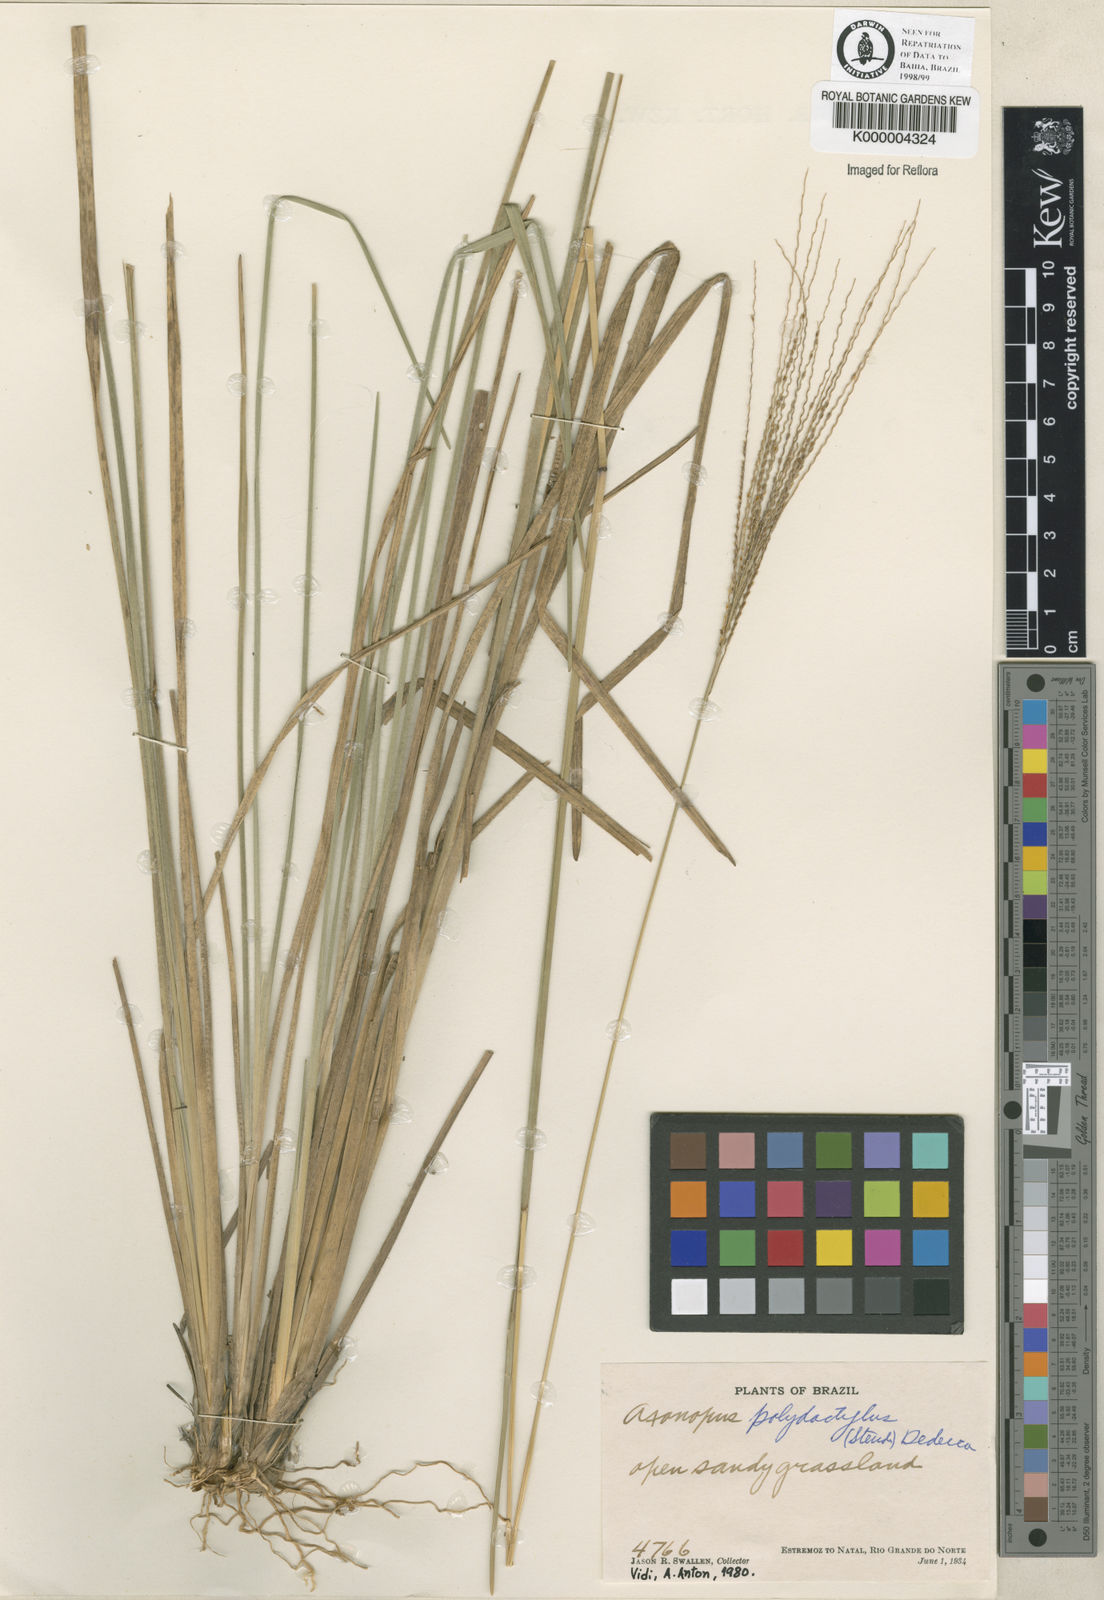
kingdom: Plantae
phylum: Tracheophyta
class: Liliopsida
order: Poales
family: Poaceae
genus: Axonopus
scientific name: Axonopus polydactylus
